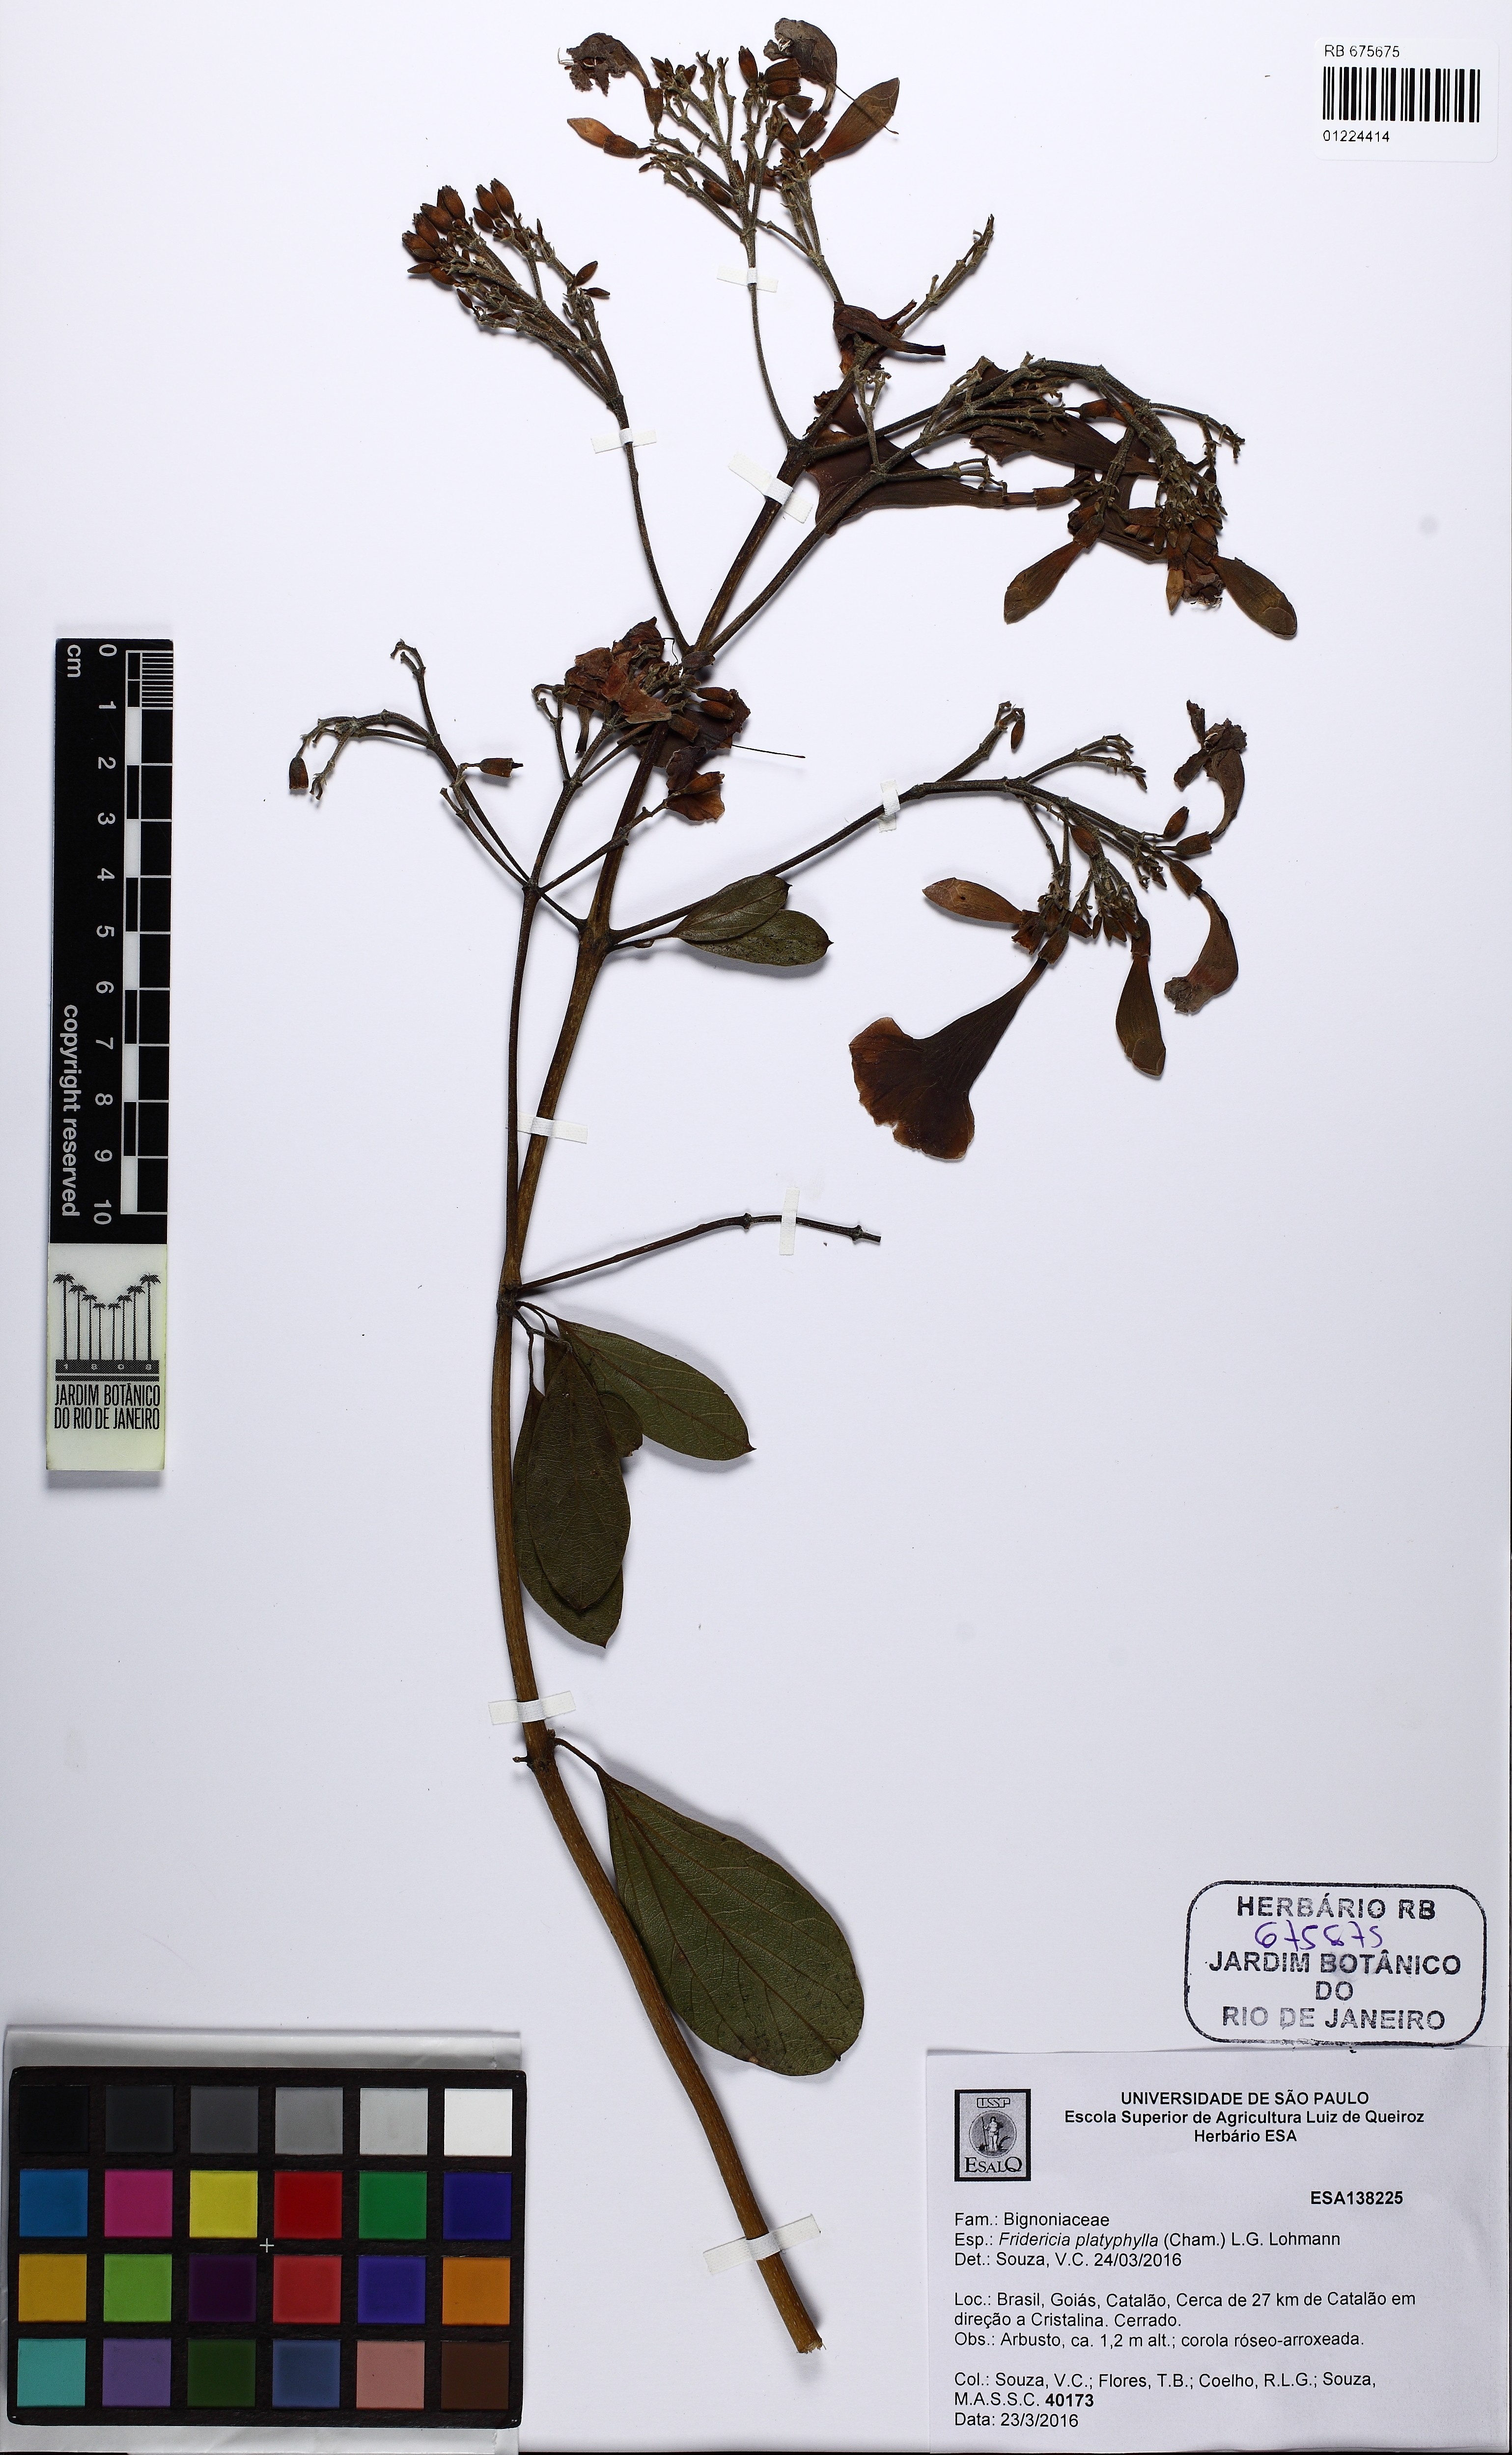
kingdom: Plantae
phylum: Tracheophyta
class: Magnoliopsida
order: Lamiales
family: Bignoniaceae
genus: Fridericia
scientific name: Fridericia platyphylla
